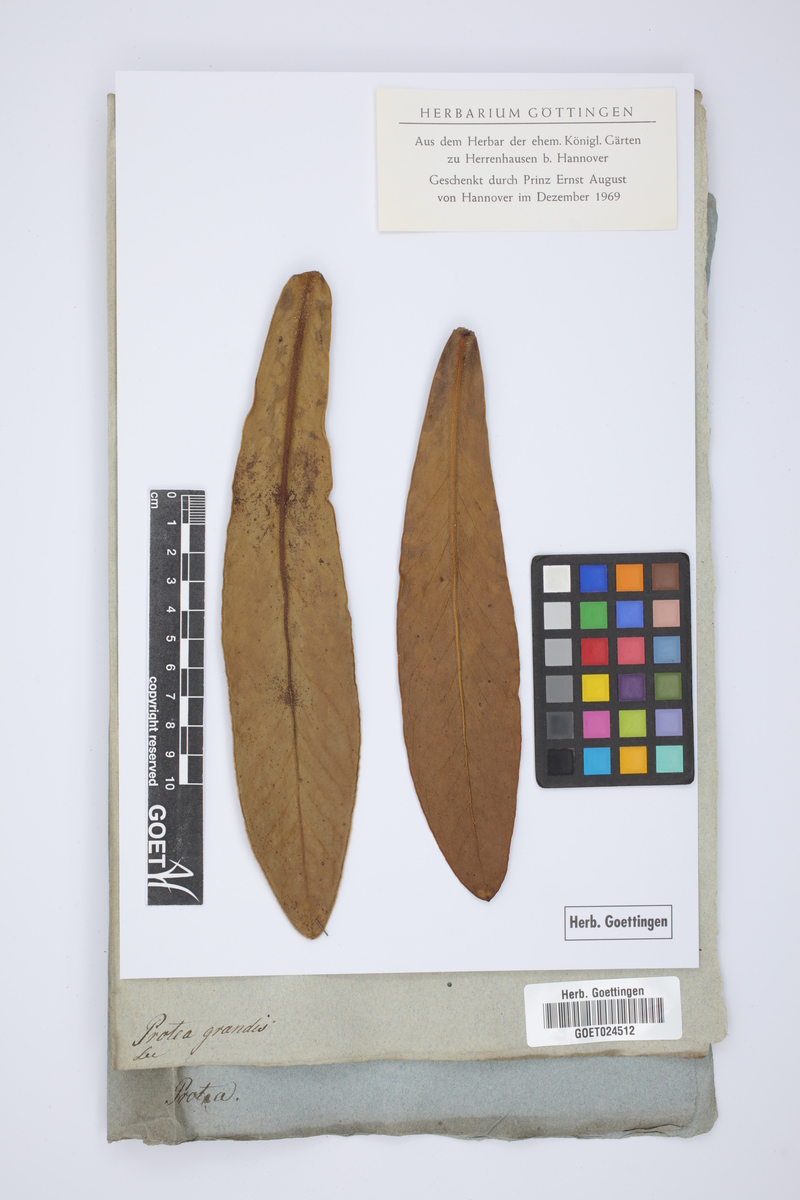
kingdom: Plantae
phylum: Tracheophyta
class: Magnoliopsida
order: Proteales
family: Proteaceae
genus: Protea
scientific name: Protea grandis
